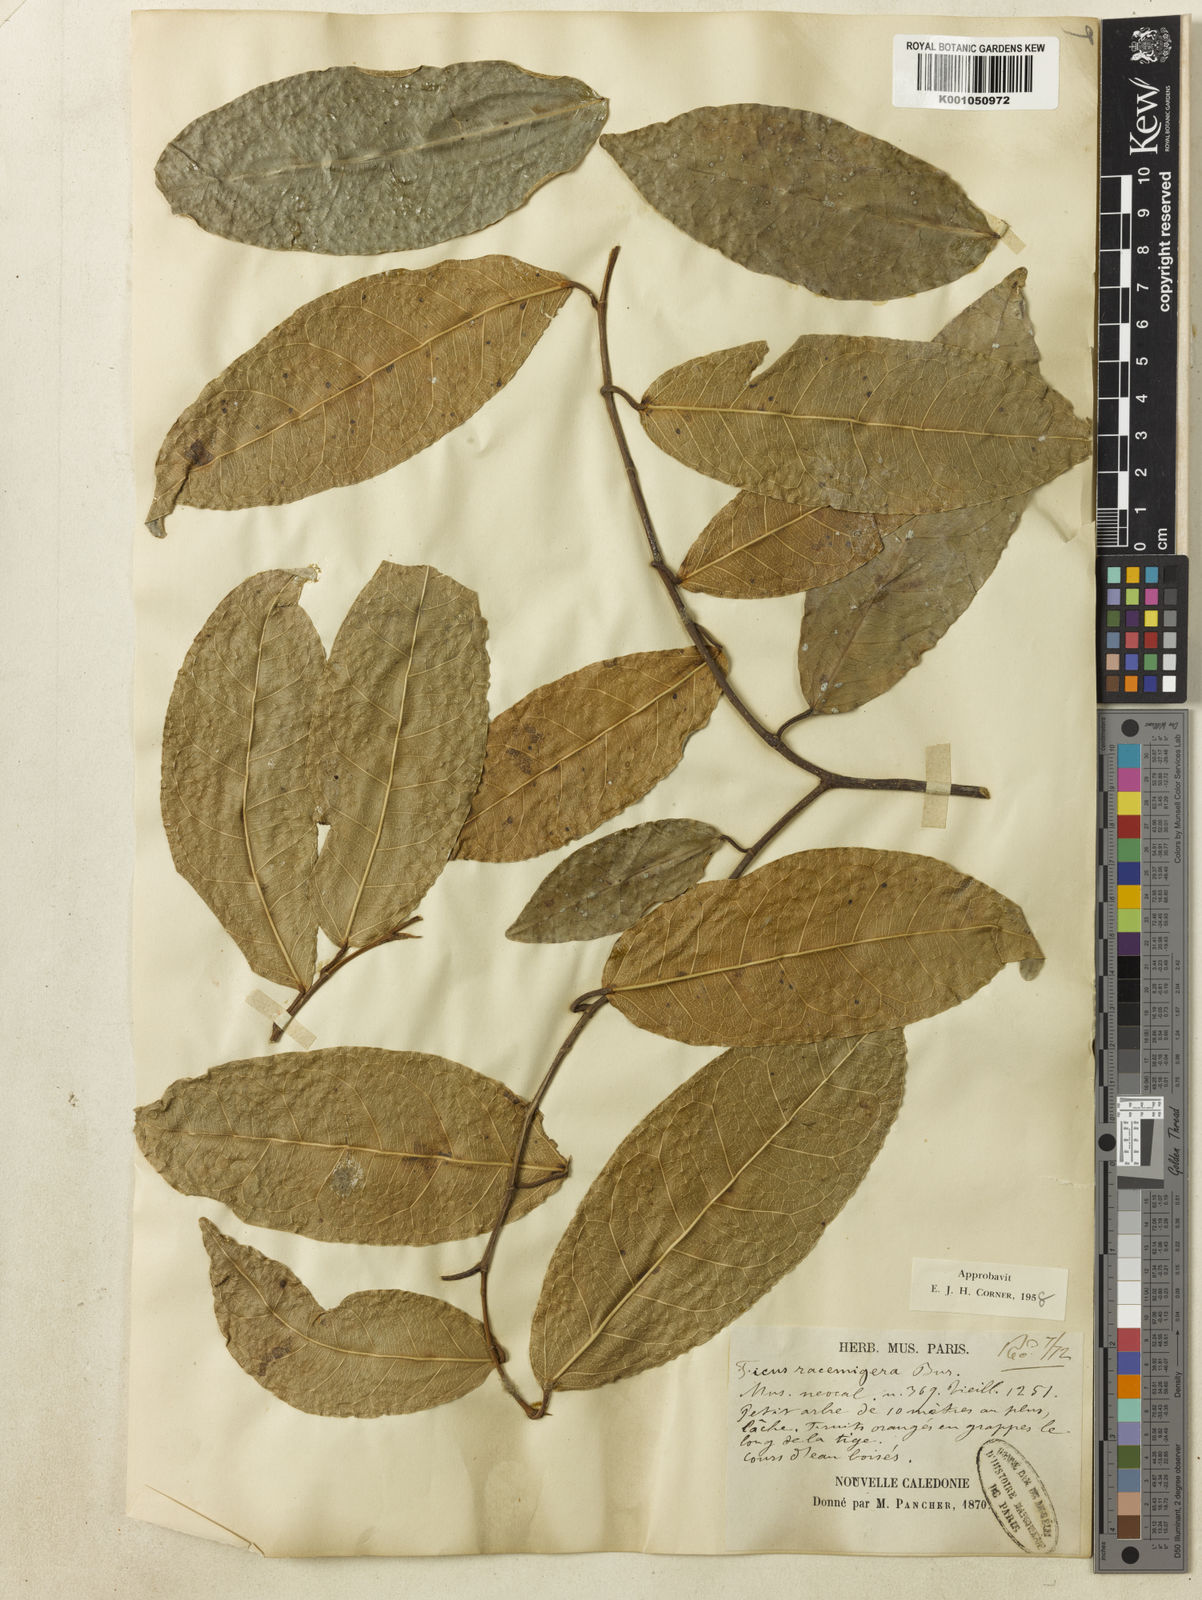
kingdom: Plantae
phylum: Tracheophyta
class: Magnoliopsida
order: Rosales
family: Moraceae
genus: Ficus
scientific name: Ficus racemigera
